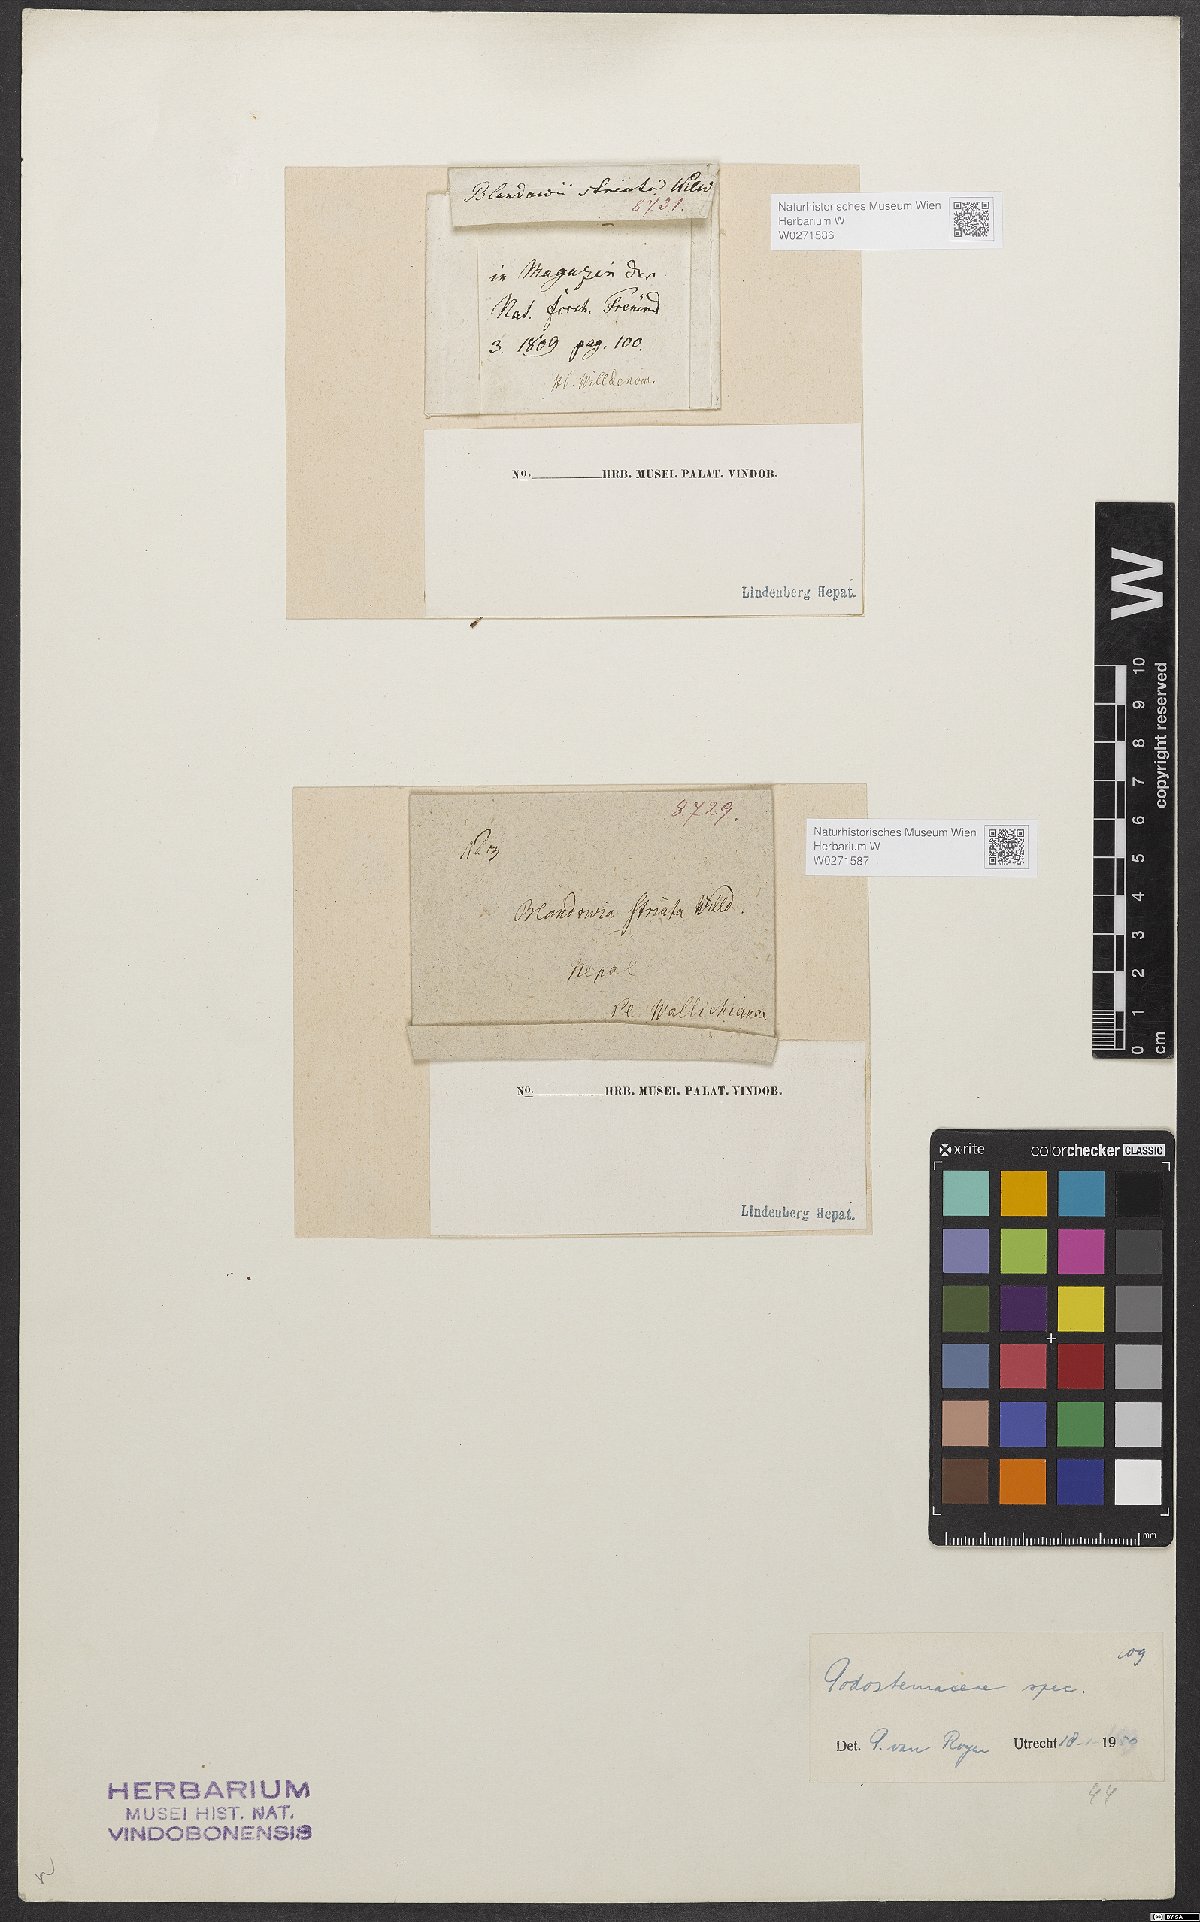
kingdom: Plantae
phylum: Tracheophyta
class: Magnoliopsida
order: Malpighiales
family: Podostemaceae
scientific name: Podostemaceae
